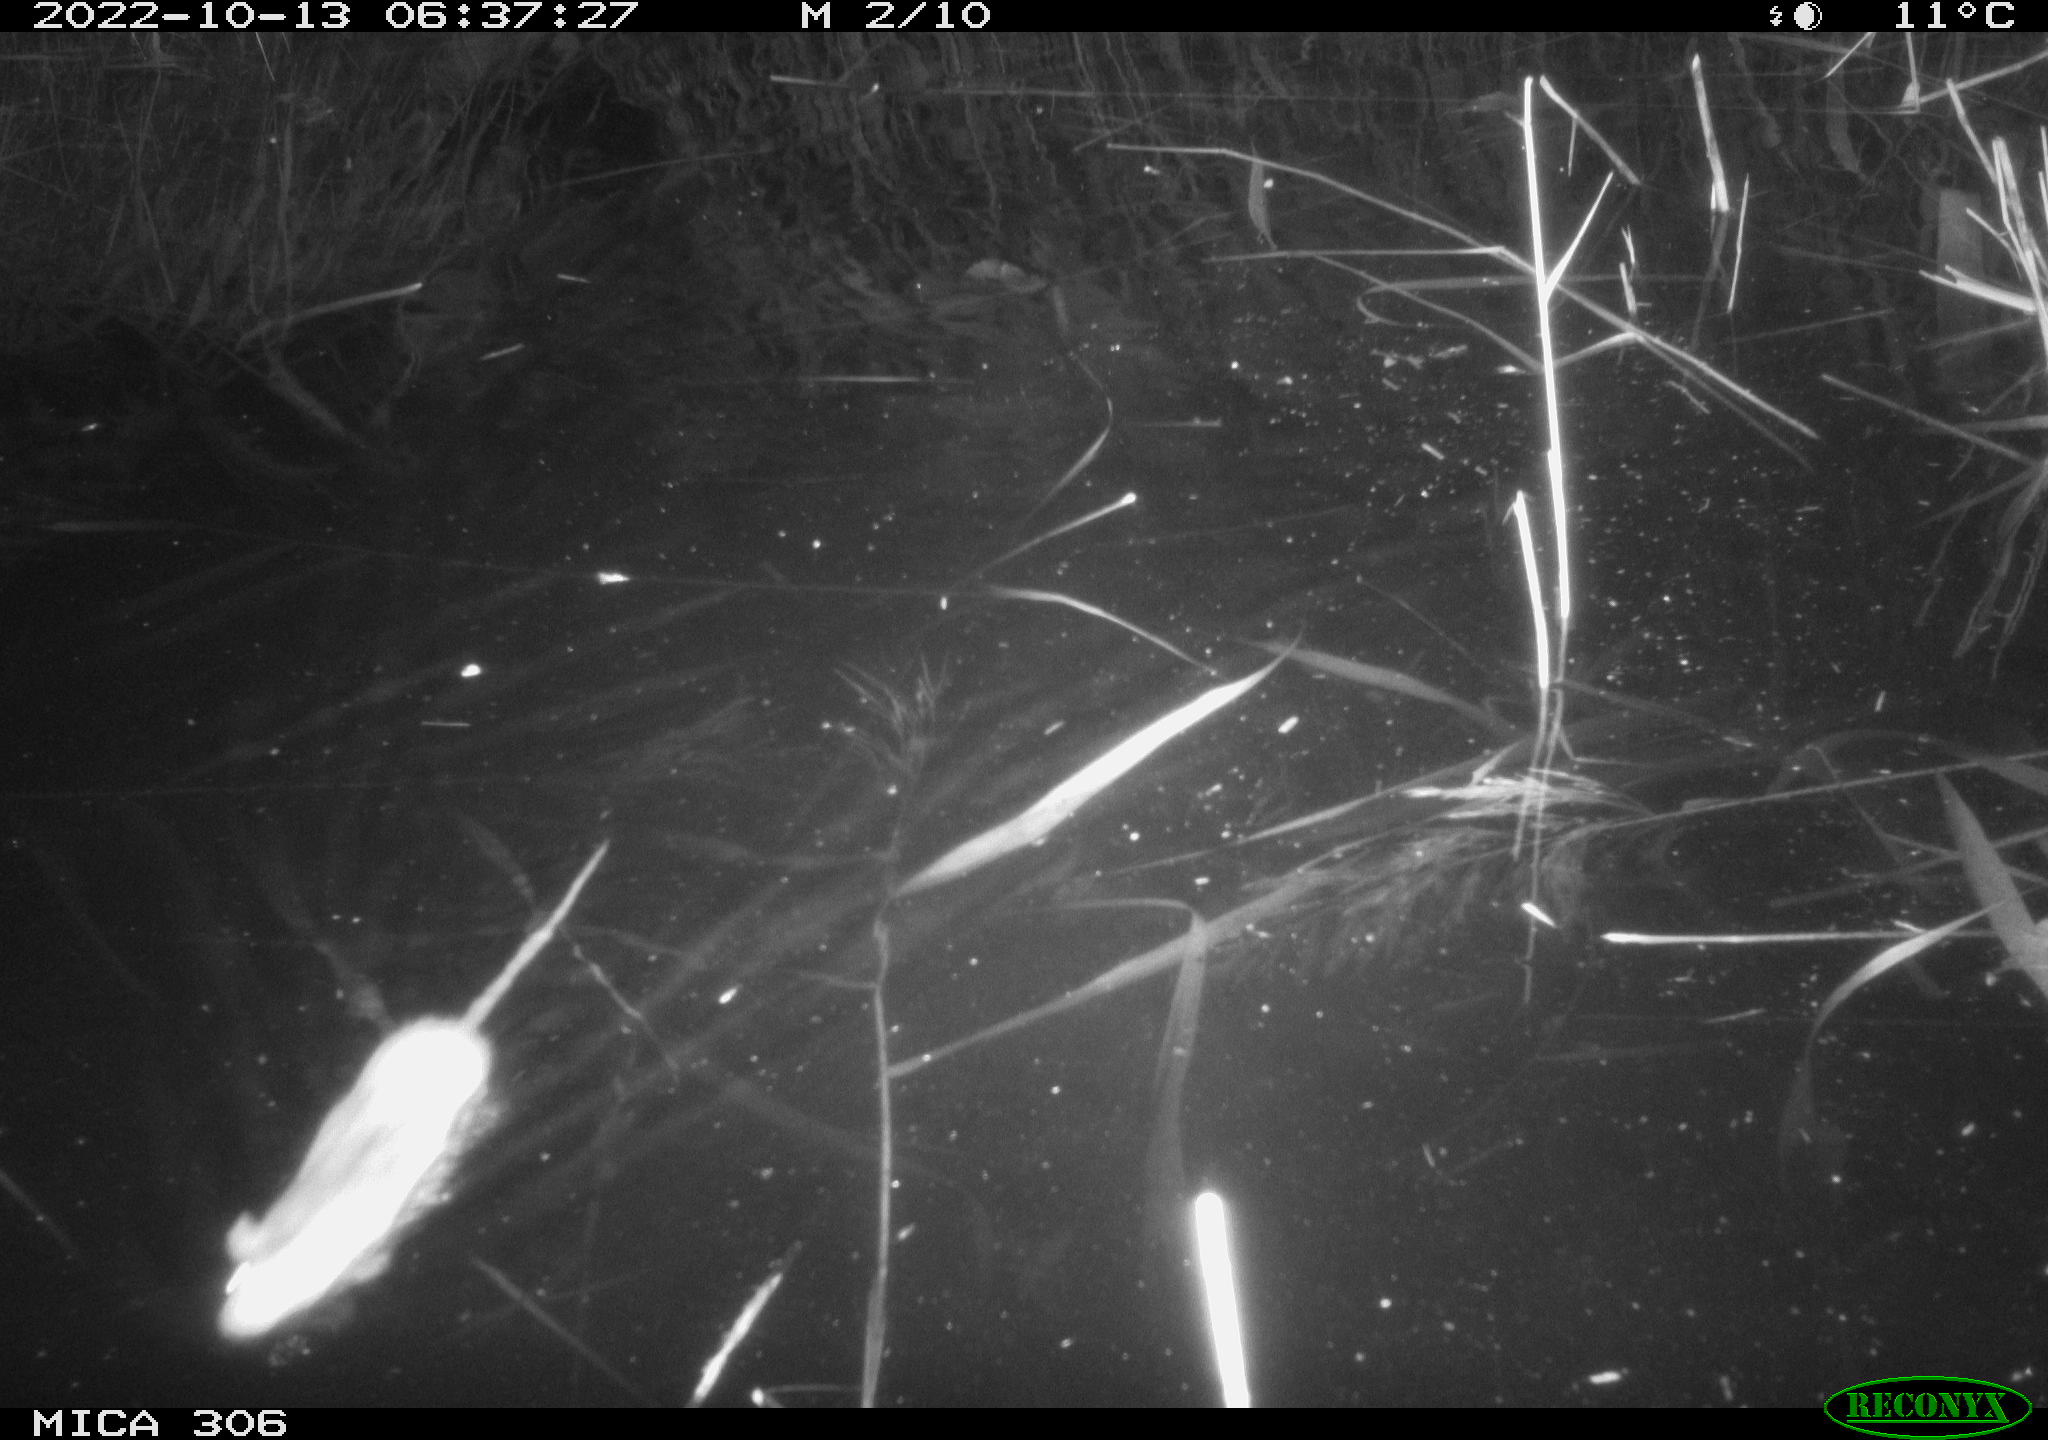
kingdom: Animalia
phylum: Chordata
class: Mammalia
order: Rodentia
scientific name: Rodentia
